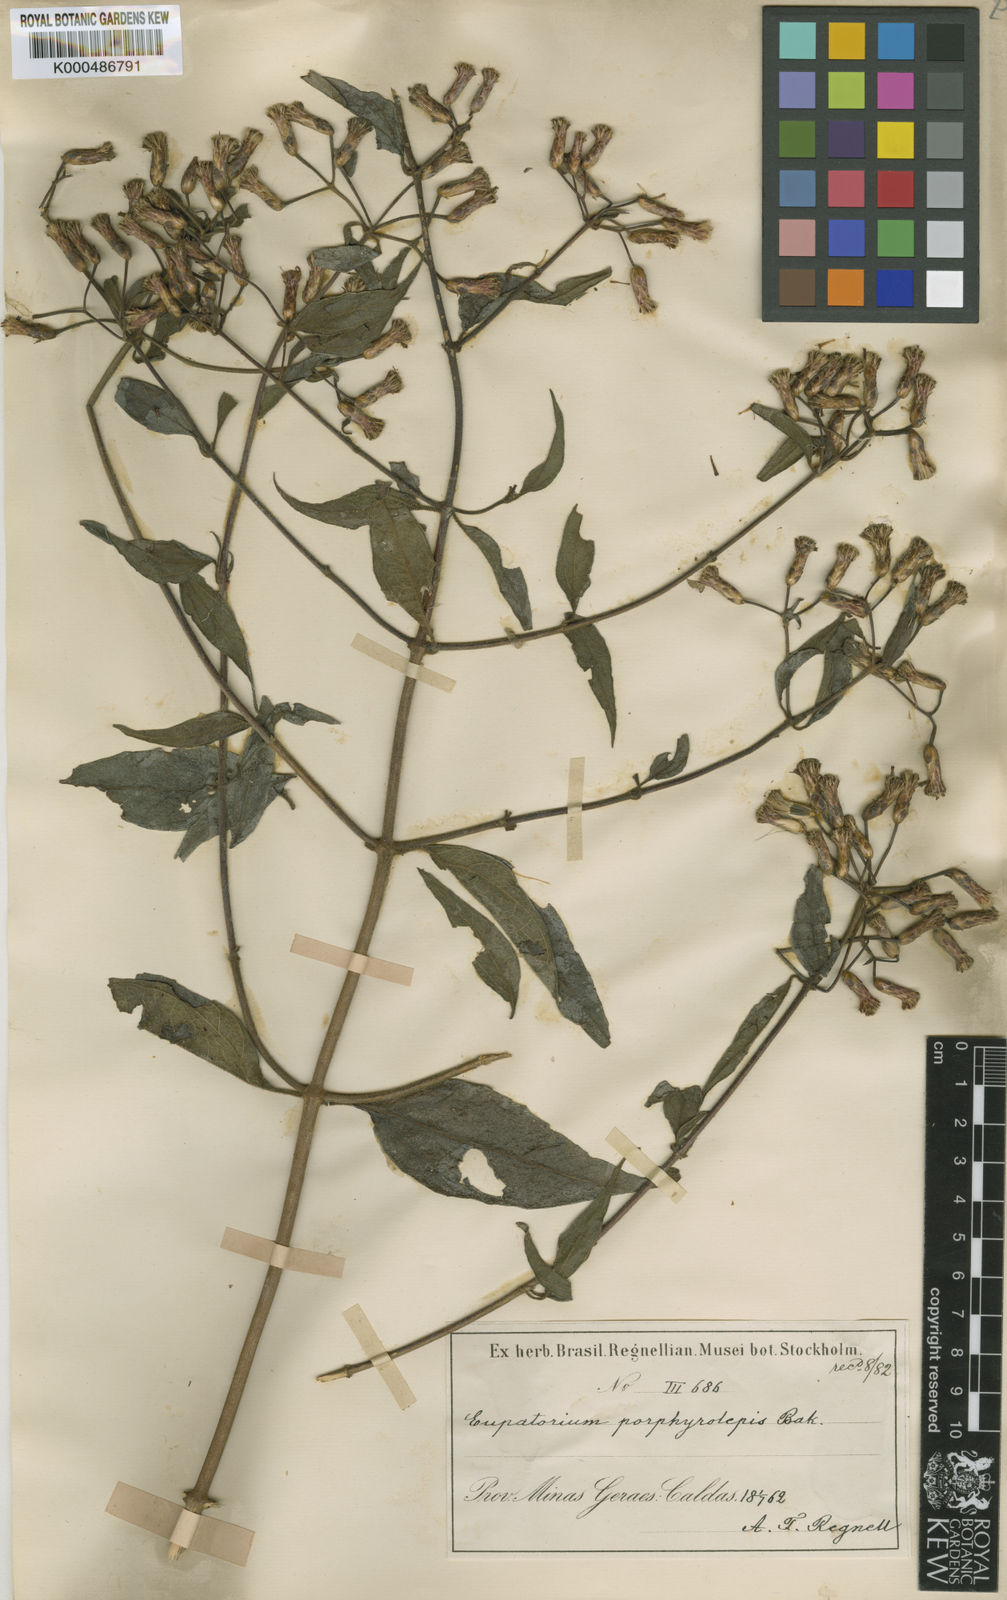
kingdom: Plantae
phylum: Tracheophyta
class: Magnoliopsida
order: Asterales
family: Asteraceae
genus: Chromolaena
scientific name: Chromolaena porphyrolepis
